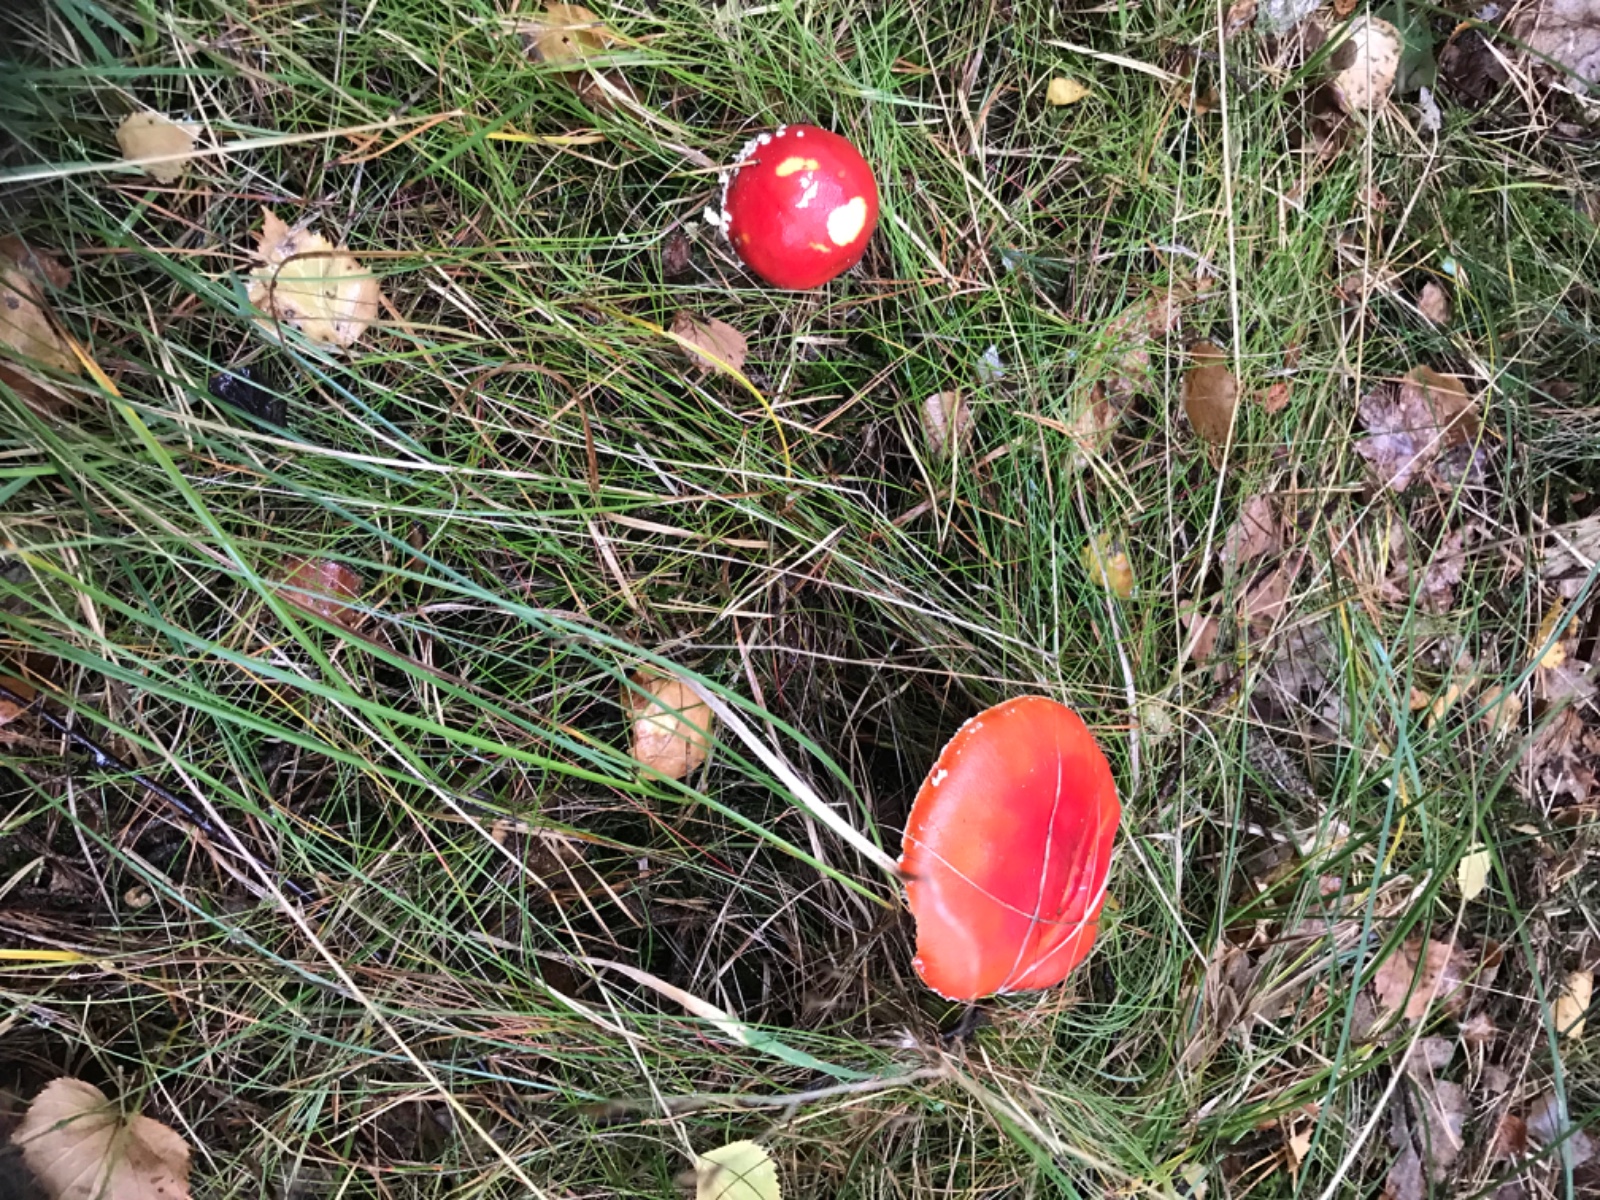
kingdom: Fungi
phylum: Basidiomycota
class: Agaricomycetes
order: Agaricales
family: Amanitaceae
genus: Amanita
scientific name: Amanita muscaria
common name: rød fluesvamp
